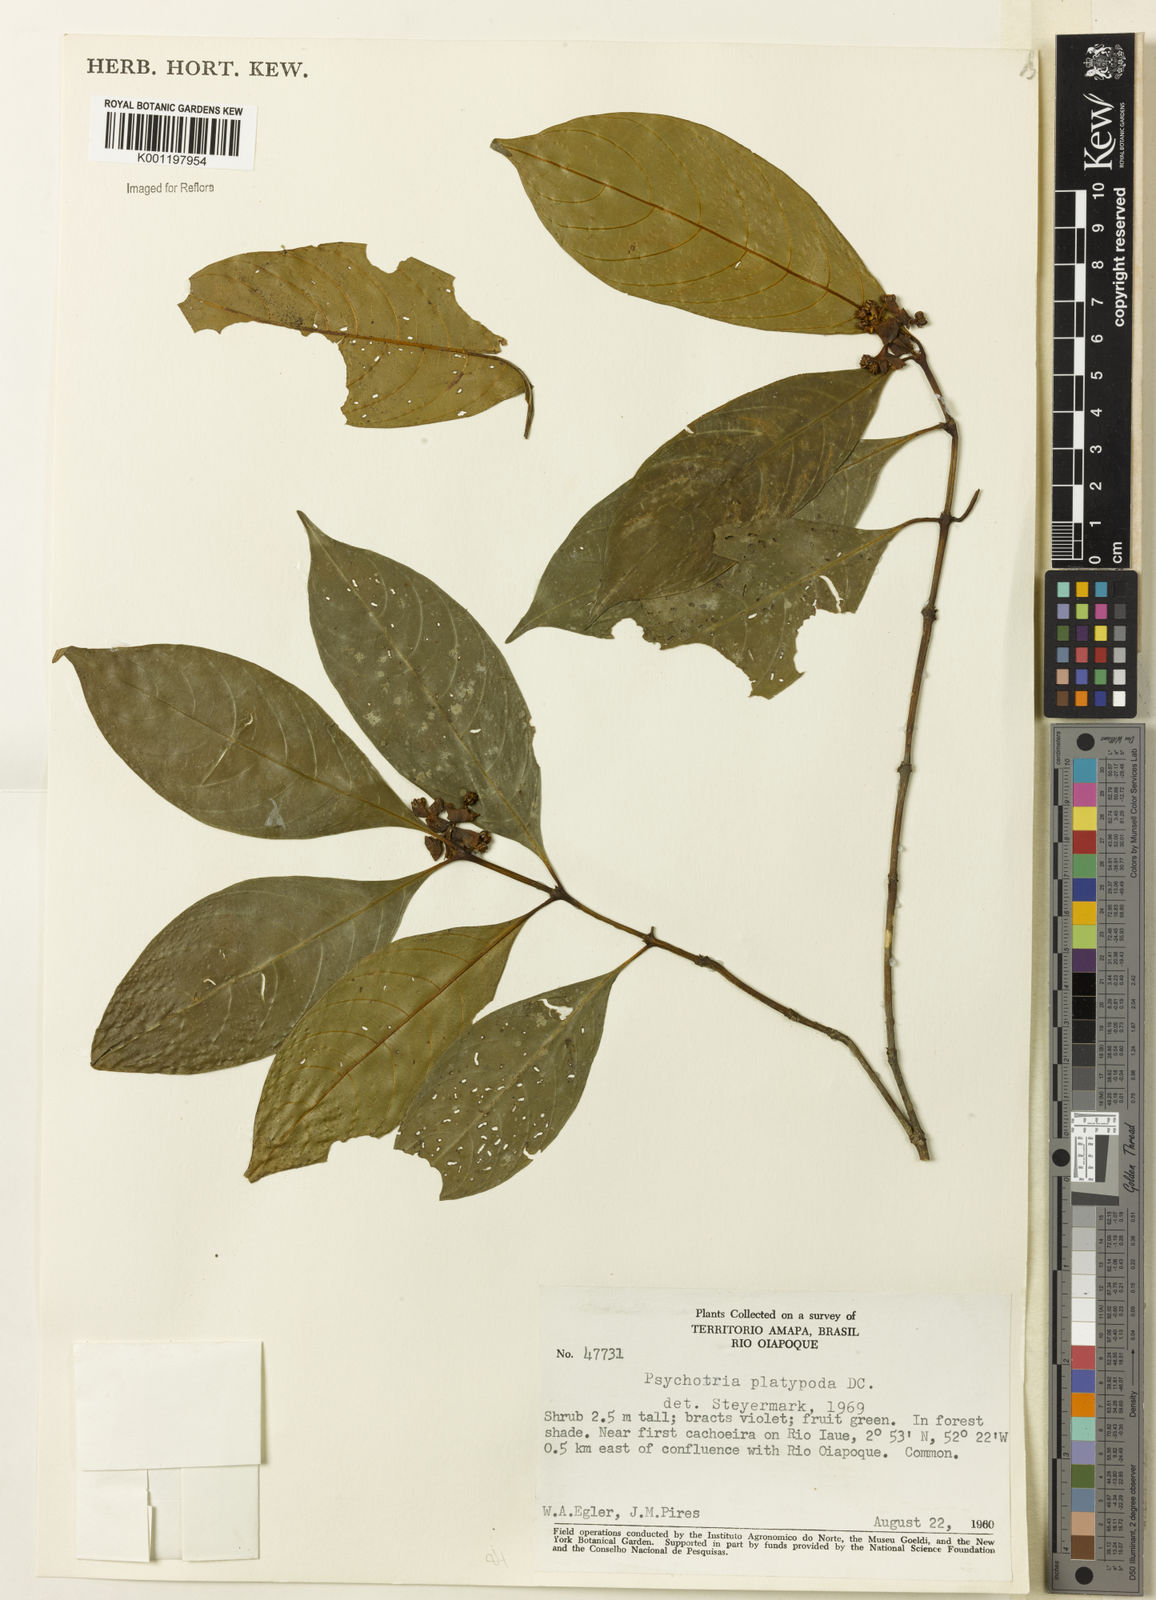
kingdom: Plantae
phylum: Tracheophyta
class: Magnoliopsida
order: Gentianales
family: Rubiaceae
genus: Palicourea
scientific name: Palicourea dichotoma
